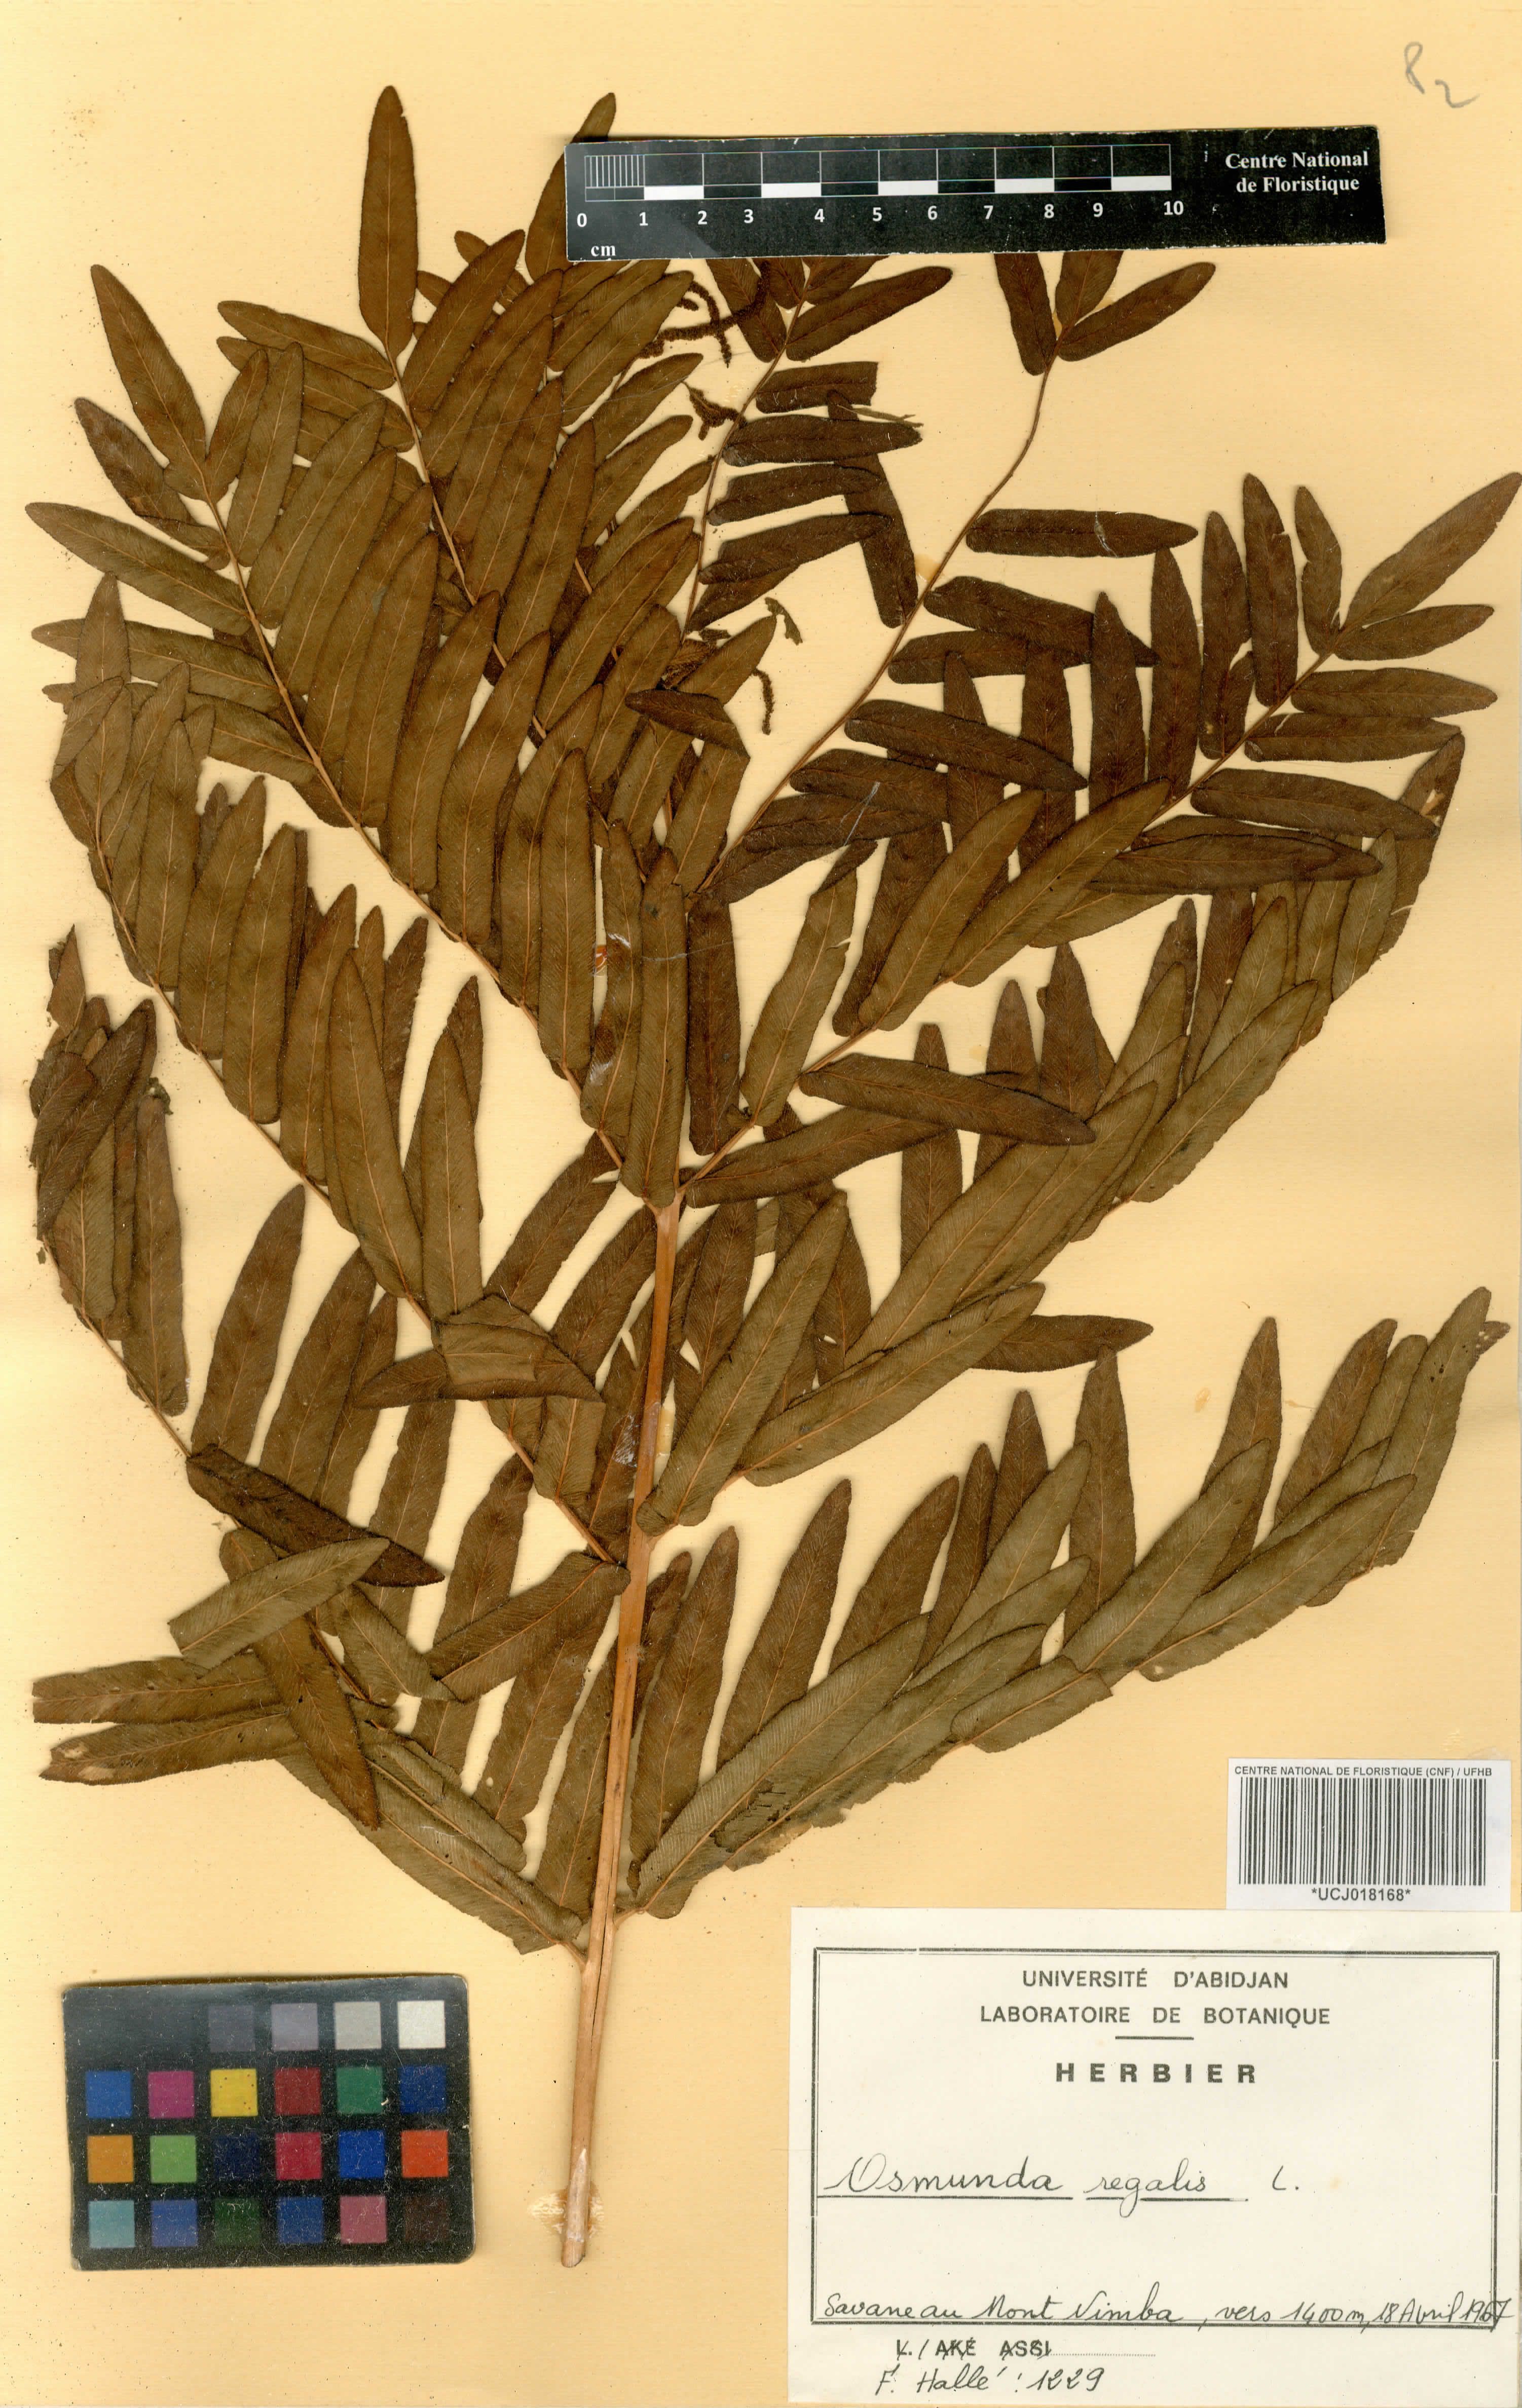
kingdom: Plantae
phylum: Tracheophyta
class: Polypodiopsida
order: Osmundales
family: Osmundaceae
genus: Osmunda
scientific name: Osmunda regalis
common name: Royal fern
